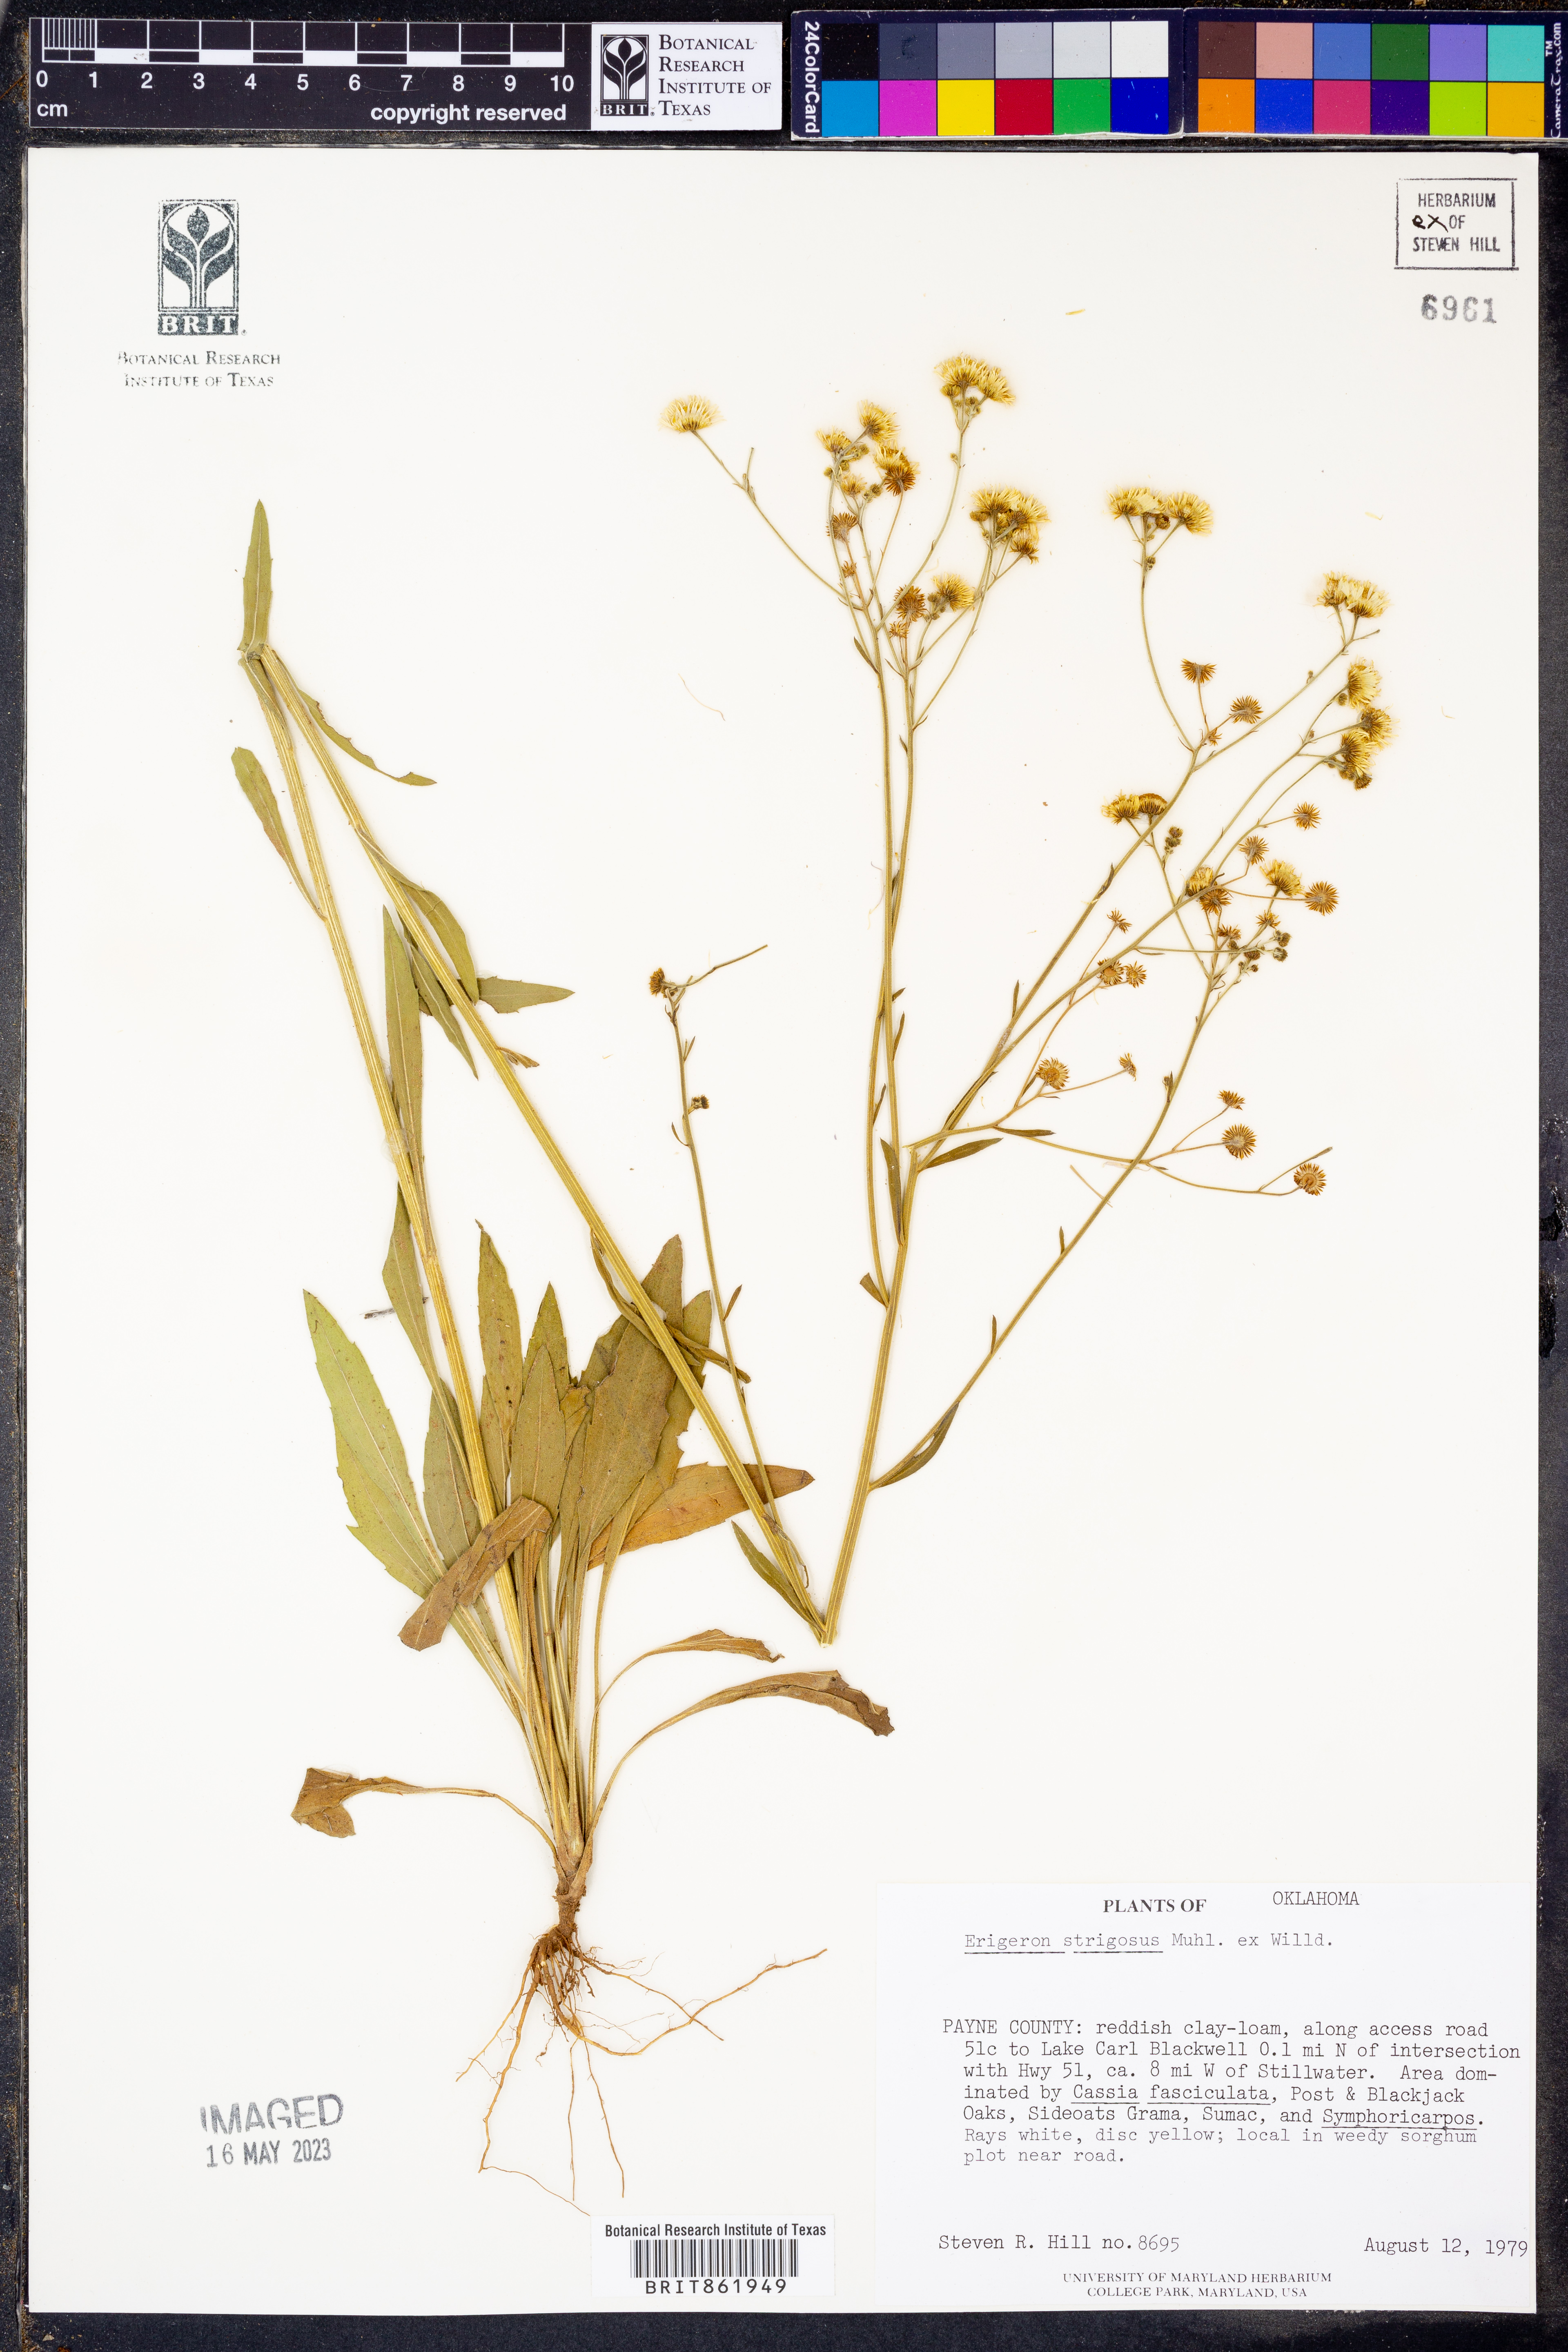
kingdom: Plantae
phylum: Tracheophyta
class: Magnoliopsida
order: Asterales
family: Asteraceae
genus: Erigeron
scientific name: Erigeron strigosus
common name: Common eastern fleabane
